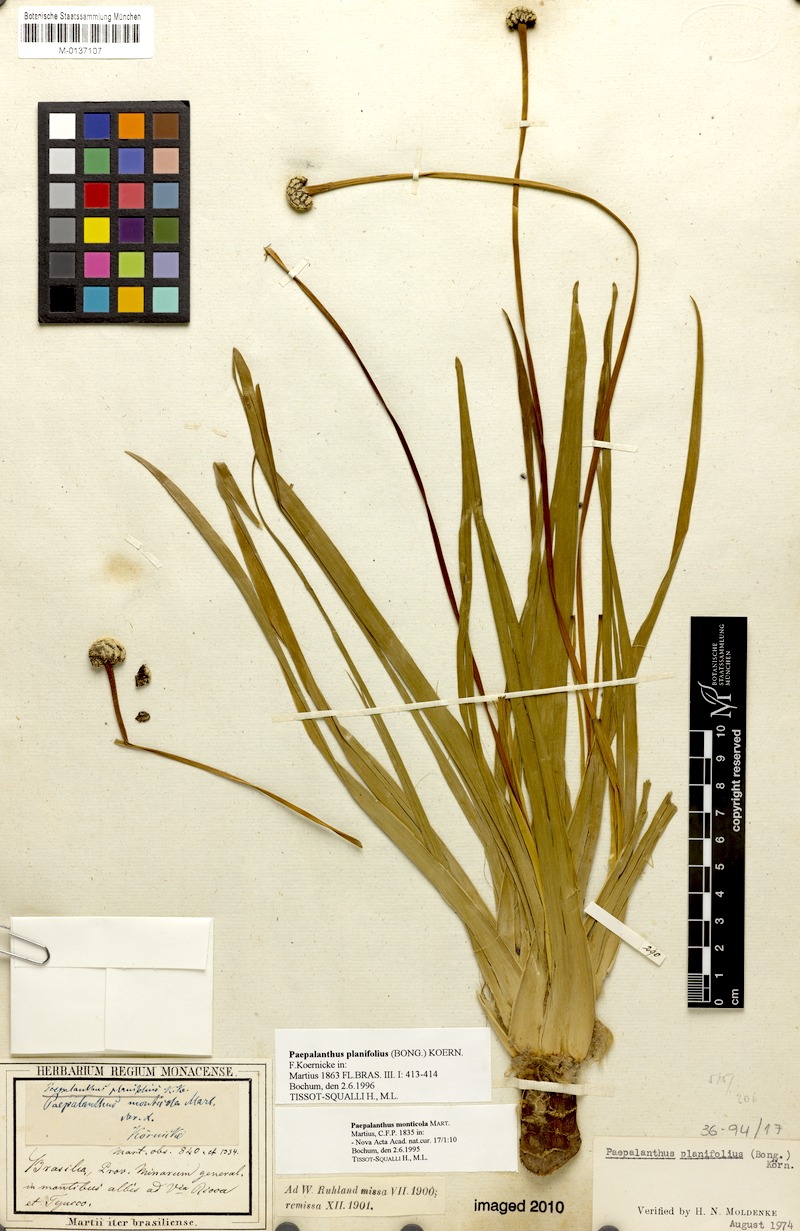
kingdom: Plantae
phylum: Tracheophyta
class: Liliopsida
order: Poales
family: Eriocaulaceae
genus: Paepalanthus
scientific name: Paepalanthus planifolius
